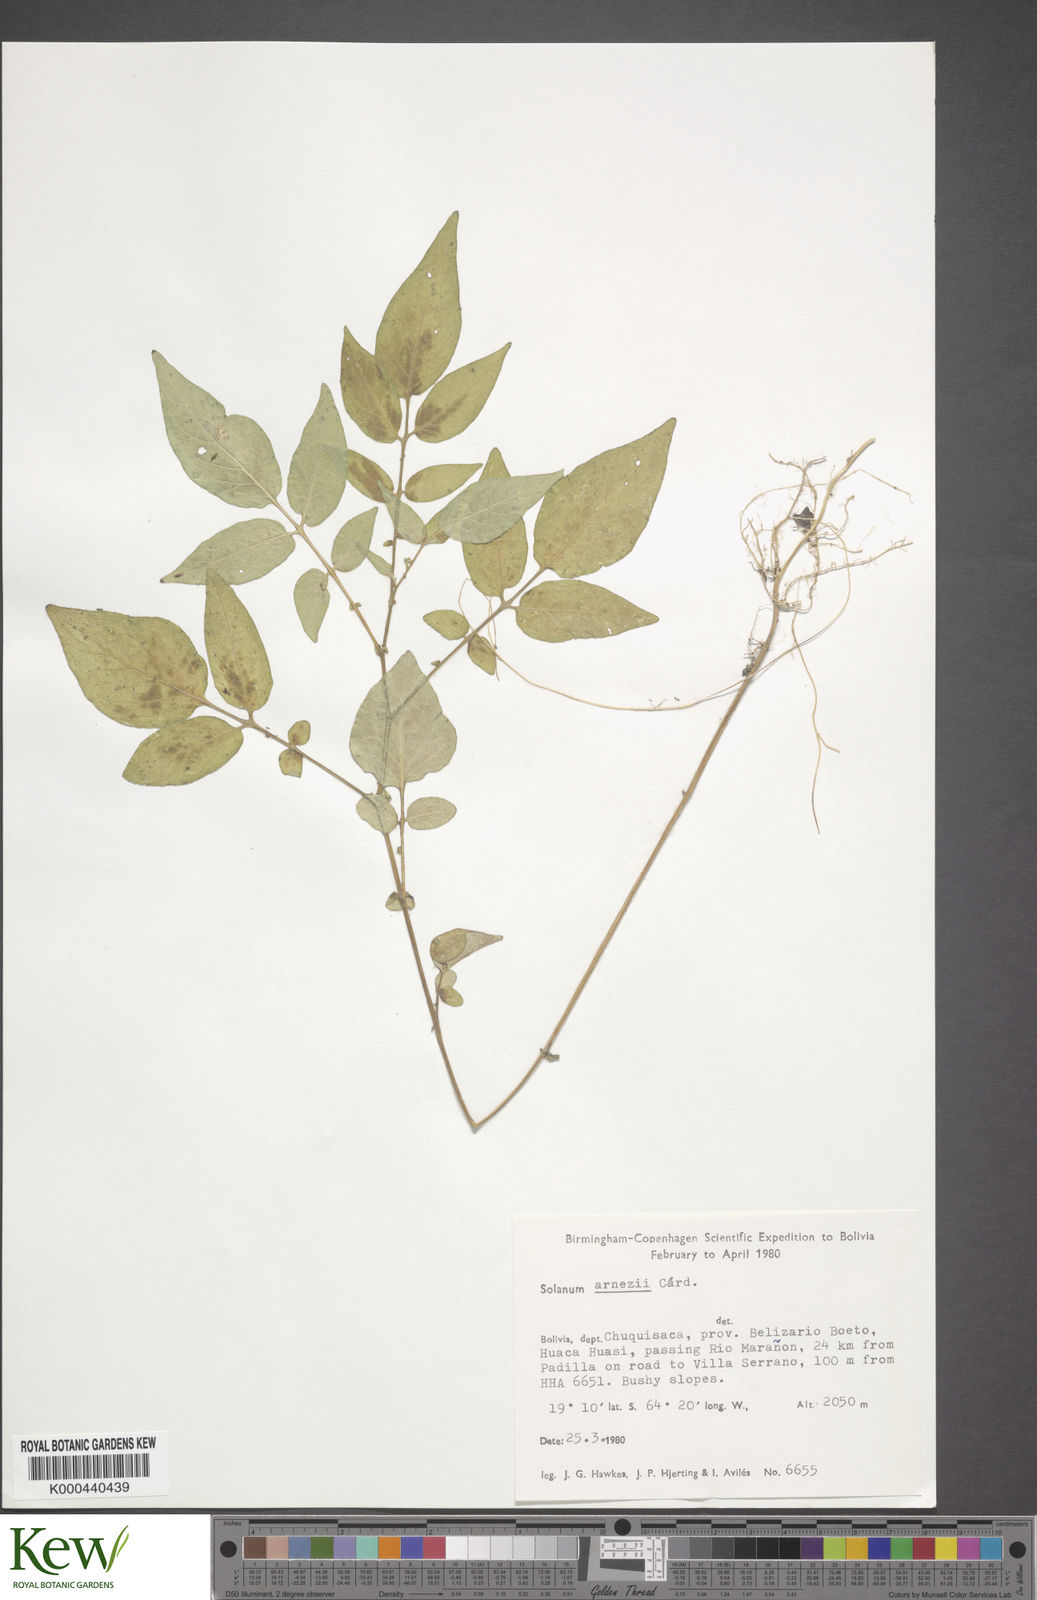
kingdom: Plantae
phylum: Tracheophyta
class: Magnoliopsida
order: Solanales
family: Solanaceae
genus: Solanum
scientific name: Solanum chacoense
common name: Chaco potato
